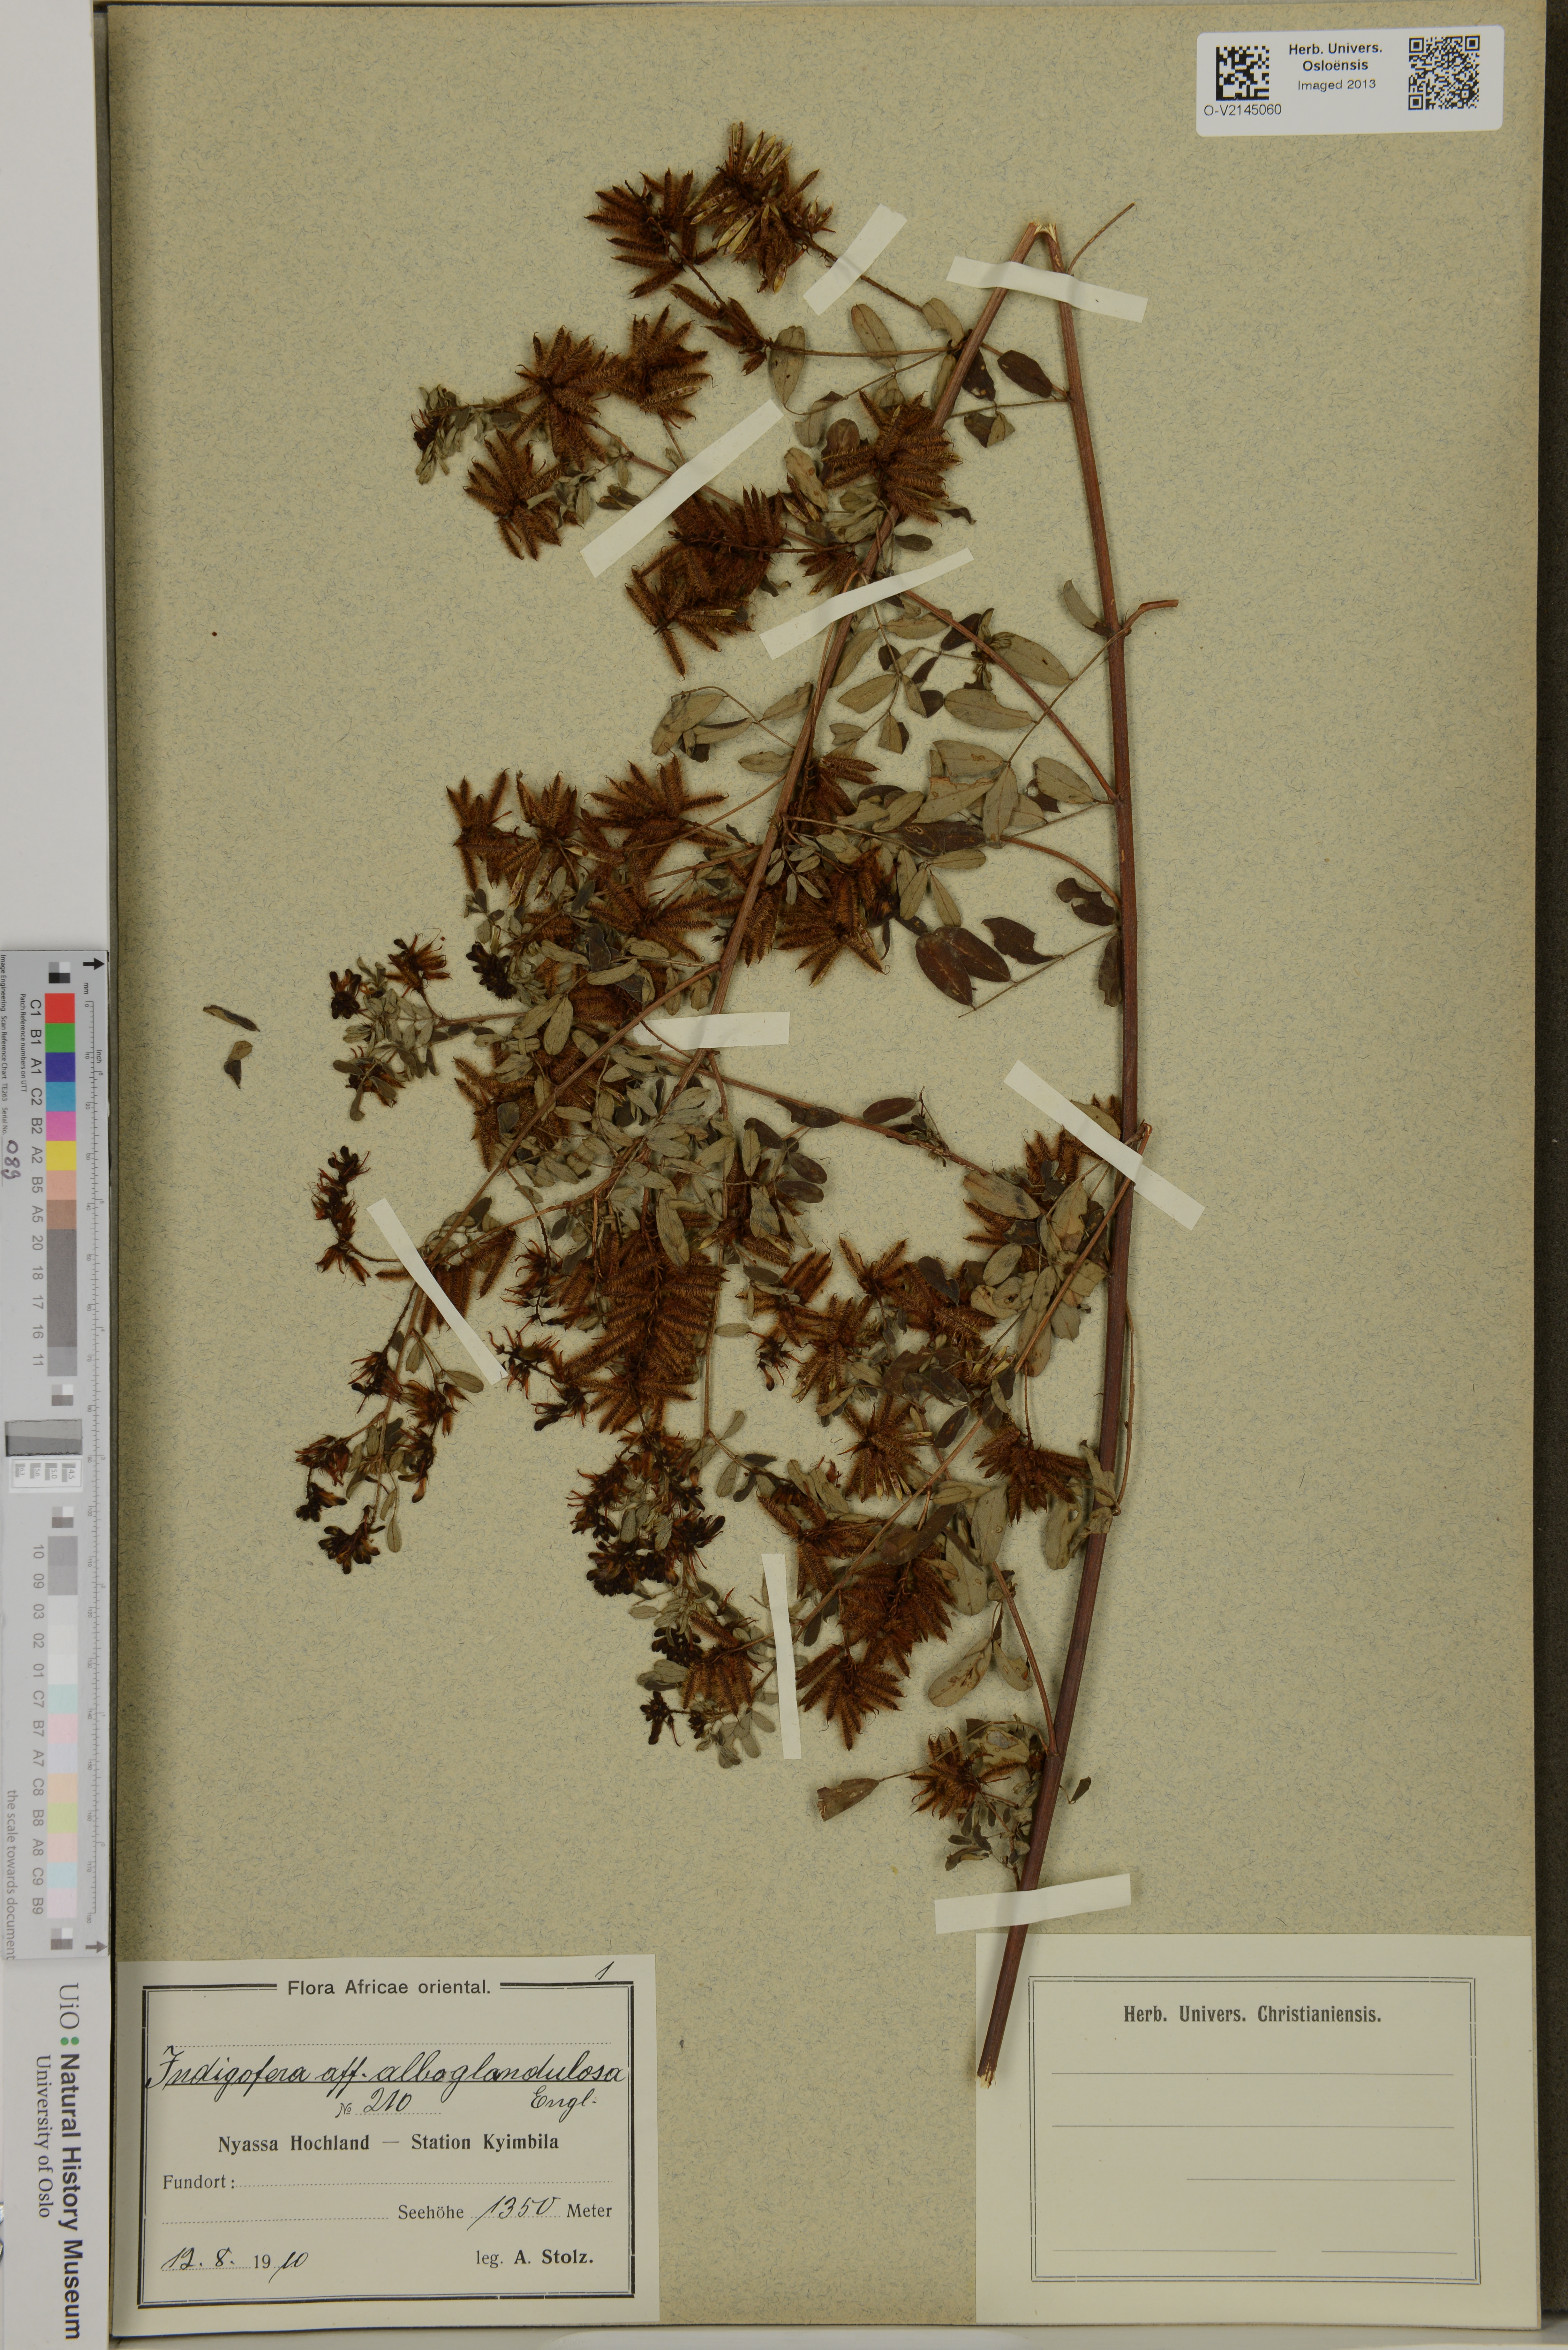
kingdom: Plantae
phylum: Tracheophyta
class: Magnoliopsida
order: Fabales
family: Fabaceae
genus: Indigofera
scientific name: Indigofera atriceps
